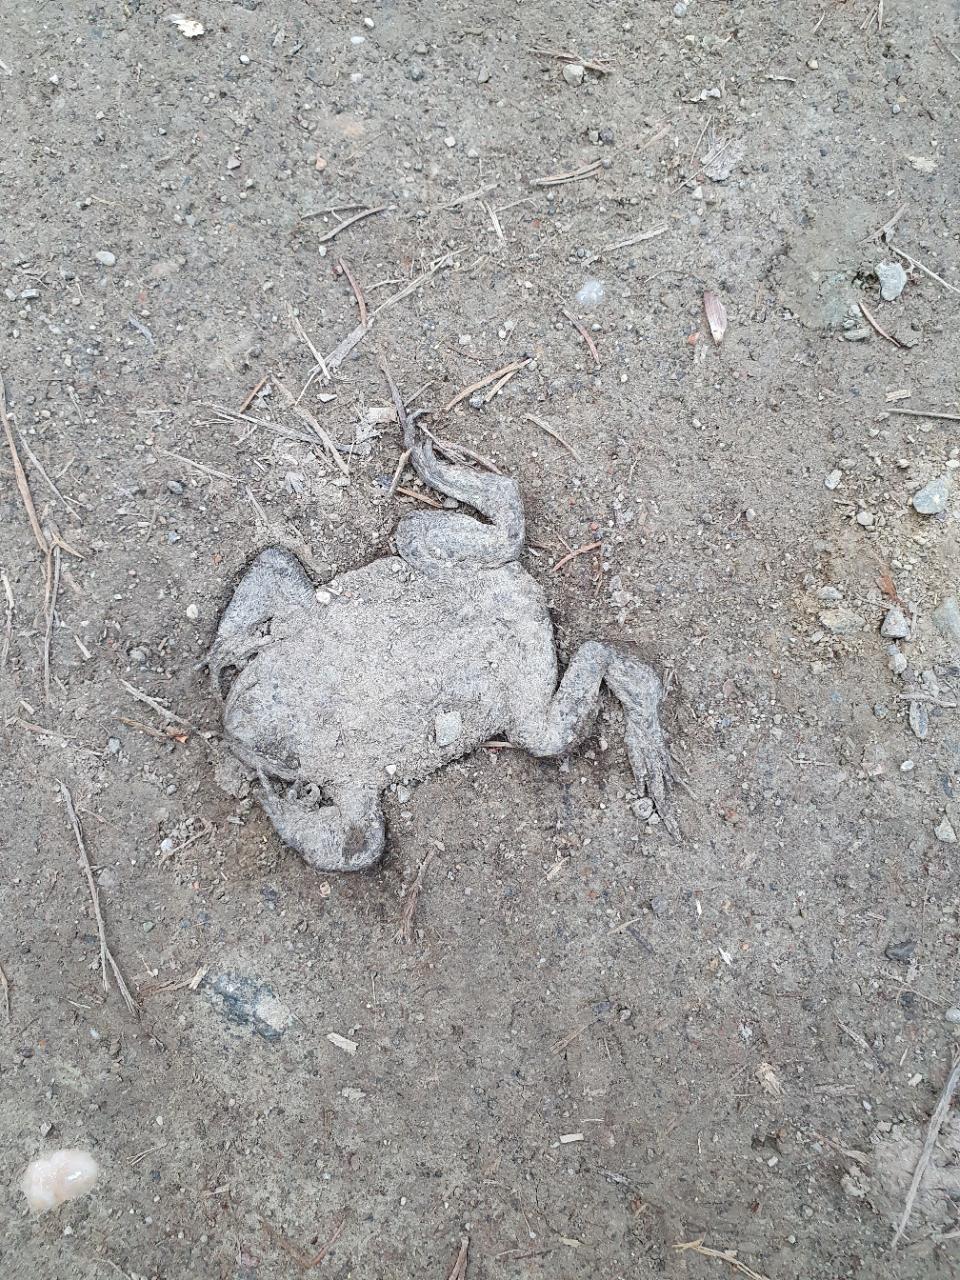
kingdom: Animalia
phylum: Chordata
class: Amphibia
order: Anura
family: Bufonidae
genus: Bufo
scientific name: Bufo bufo
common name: Common toad
